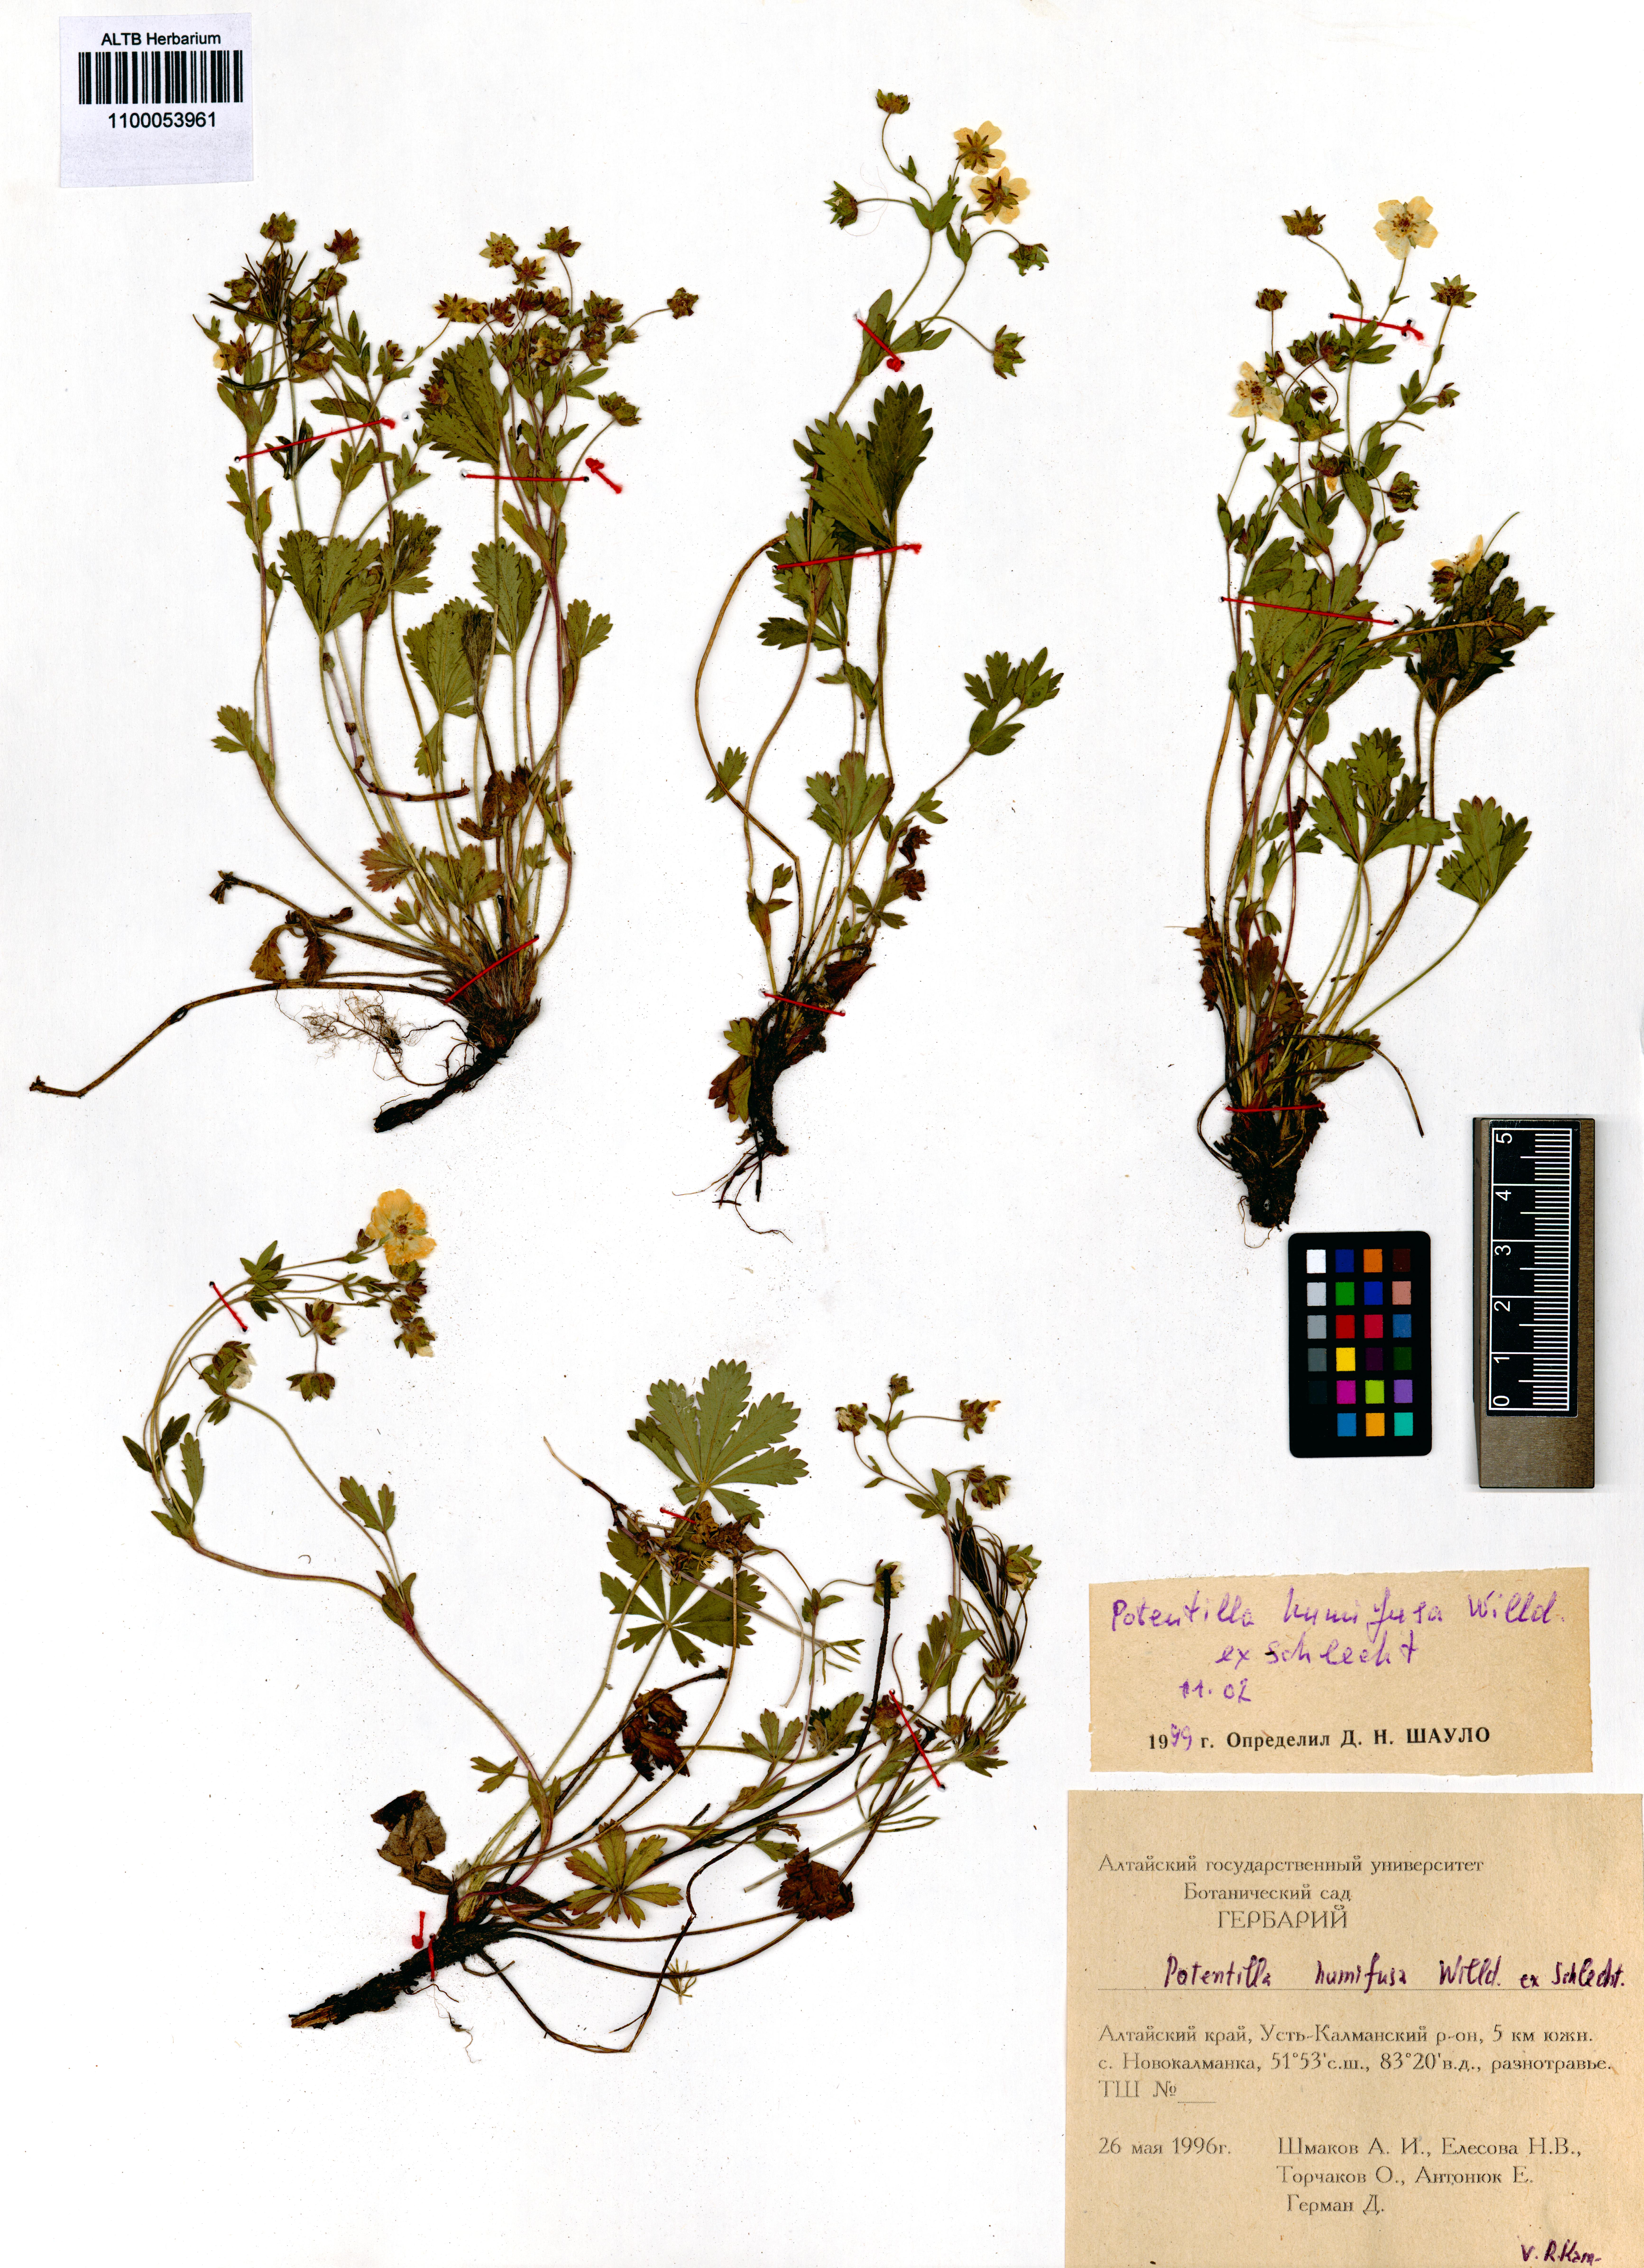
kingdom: Plantae
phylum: Tracheophyta
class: Magnoliopsida
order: Rosales
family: Rosaceae
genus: Potentilla
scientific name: Potentilla humifusa
